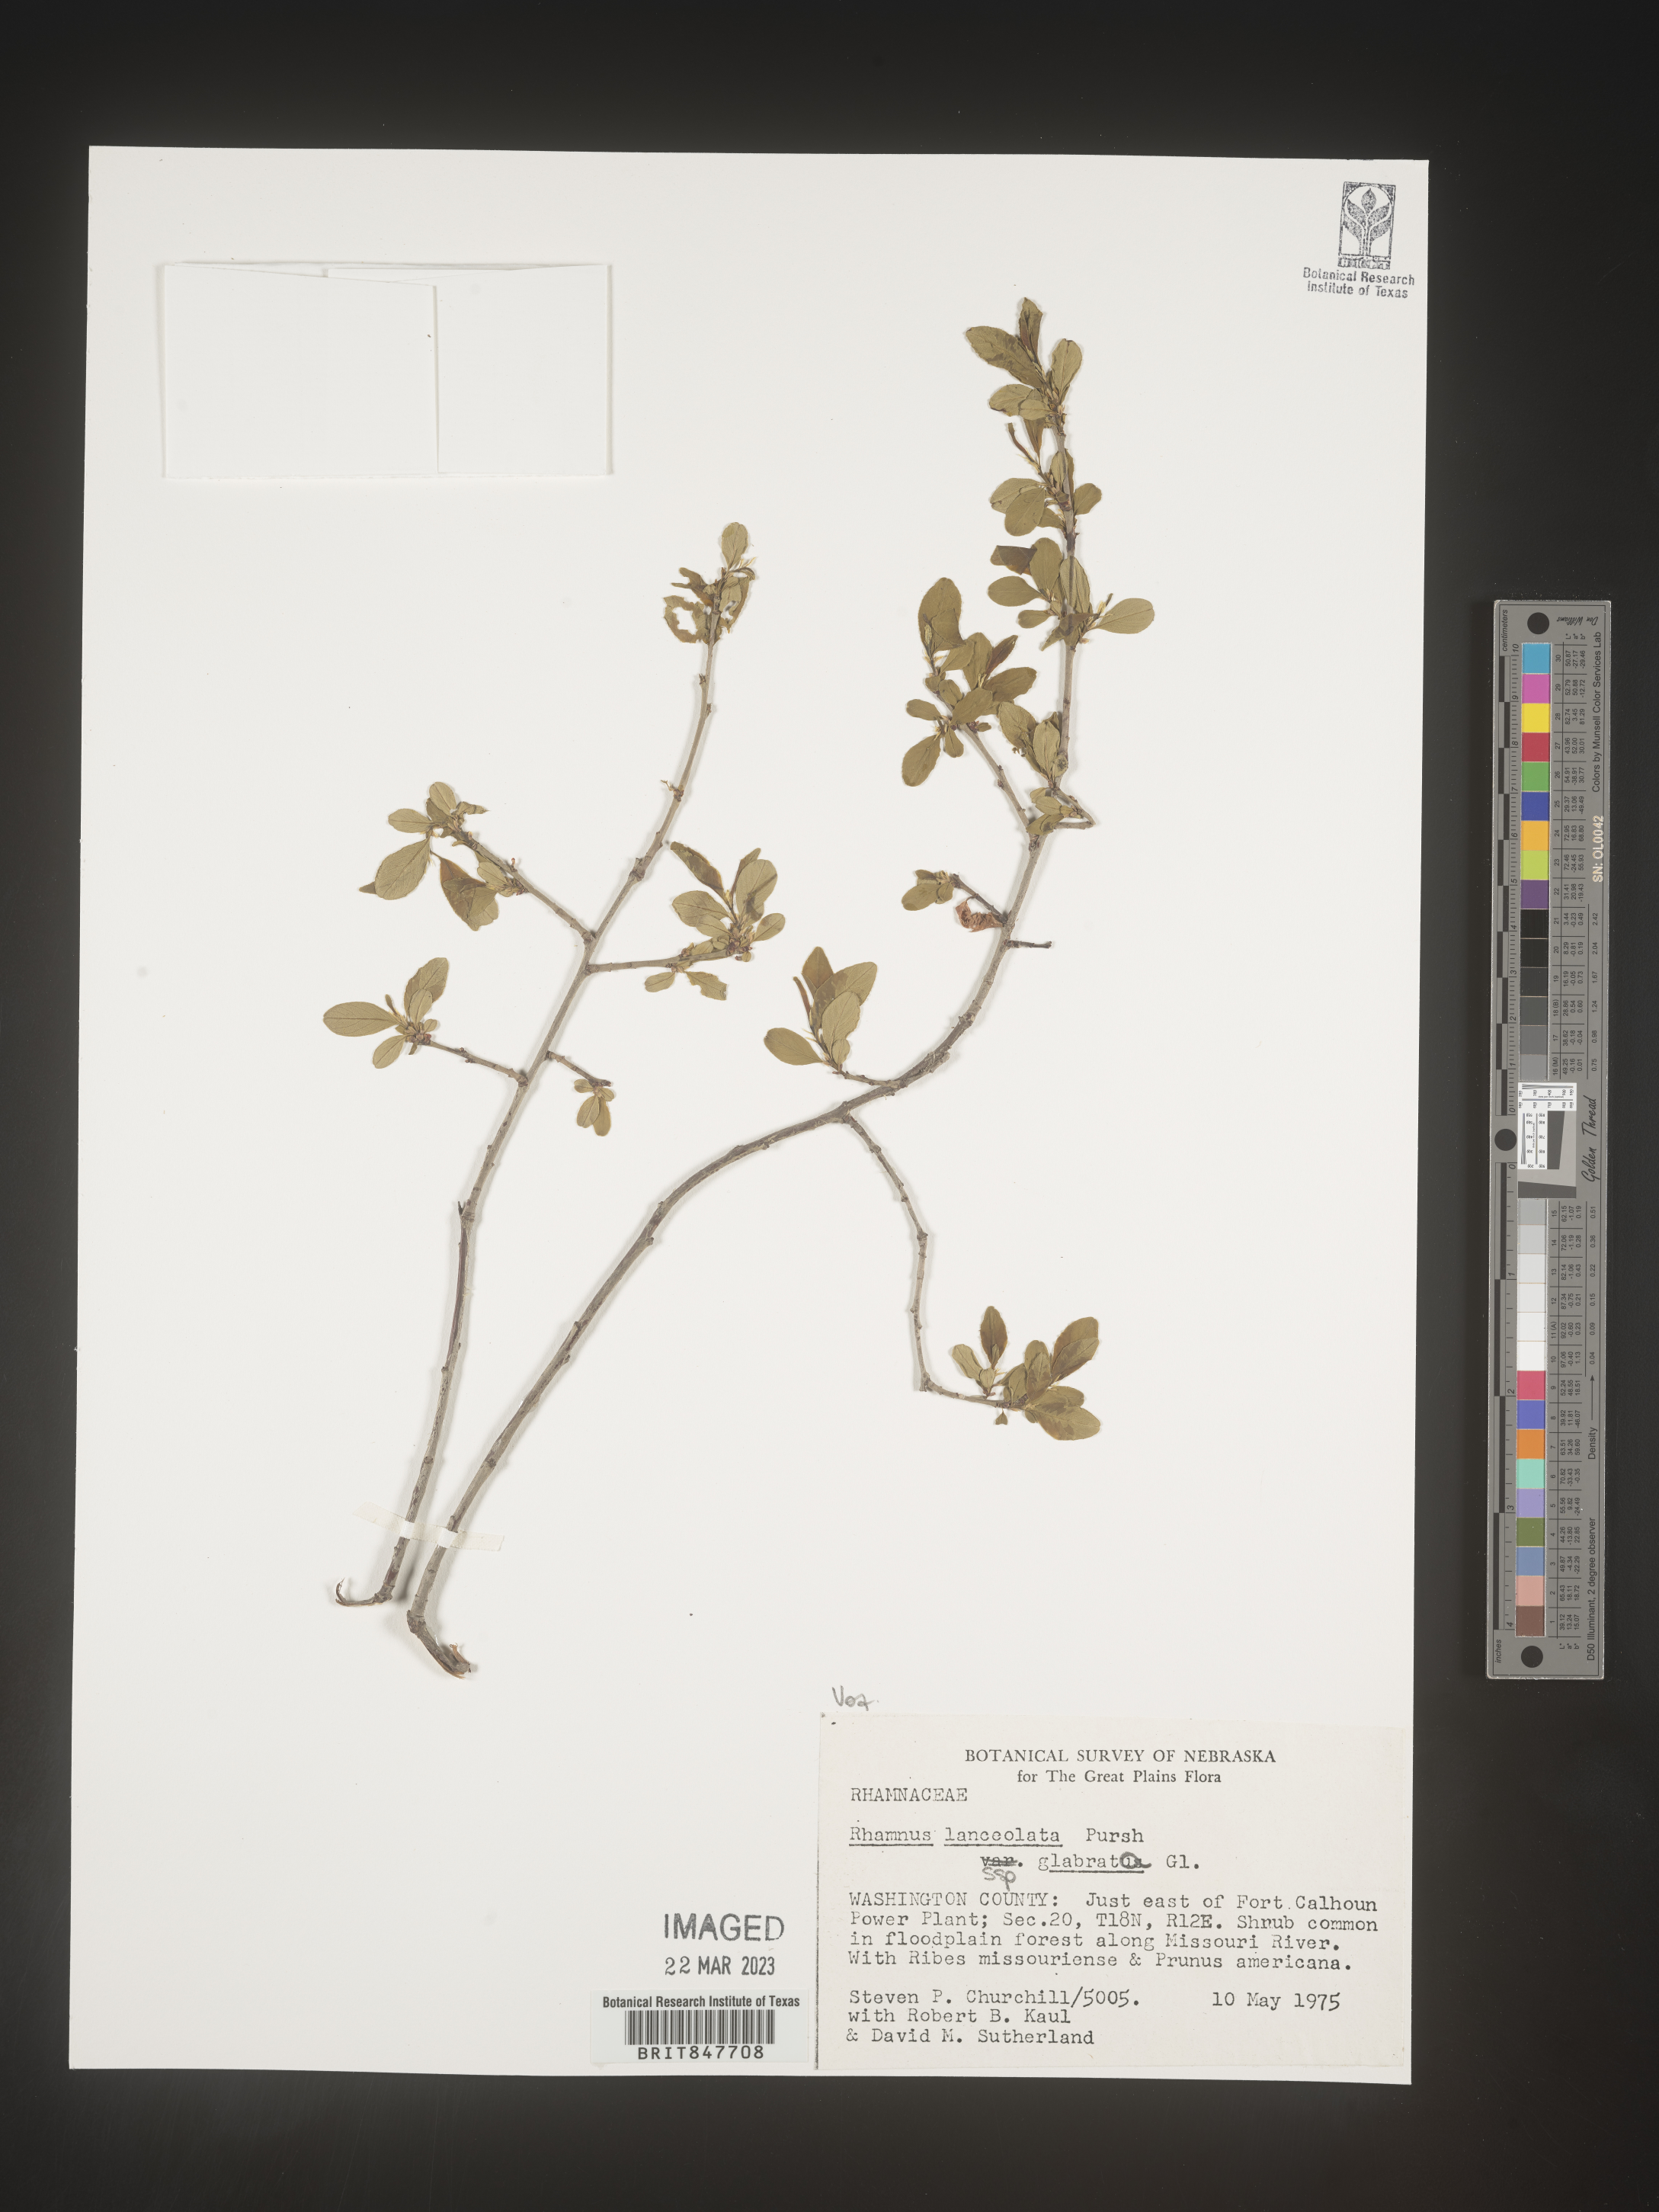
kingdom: Plantae
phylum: Tracheophyta
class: Magnoliopsida
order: Rosales
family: Rhamnaceae
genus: Endotropis
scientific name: Endotropis lanceolata
